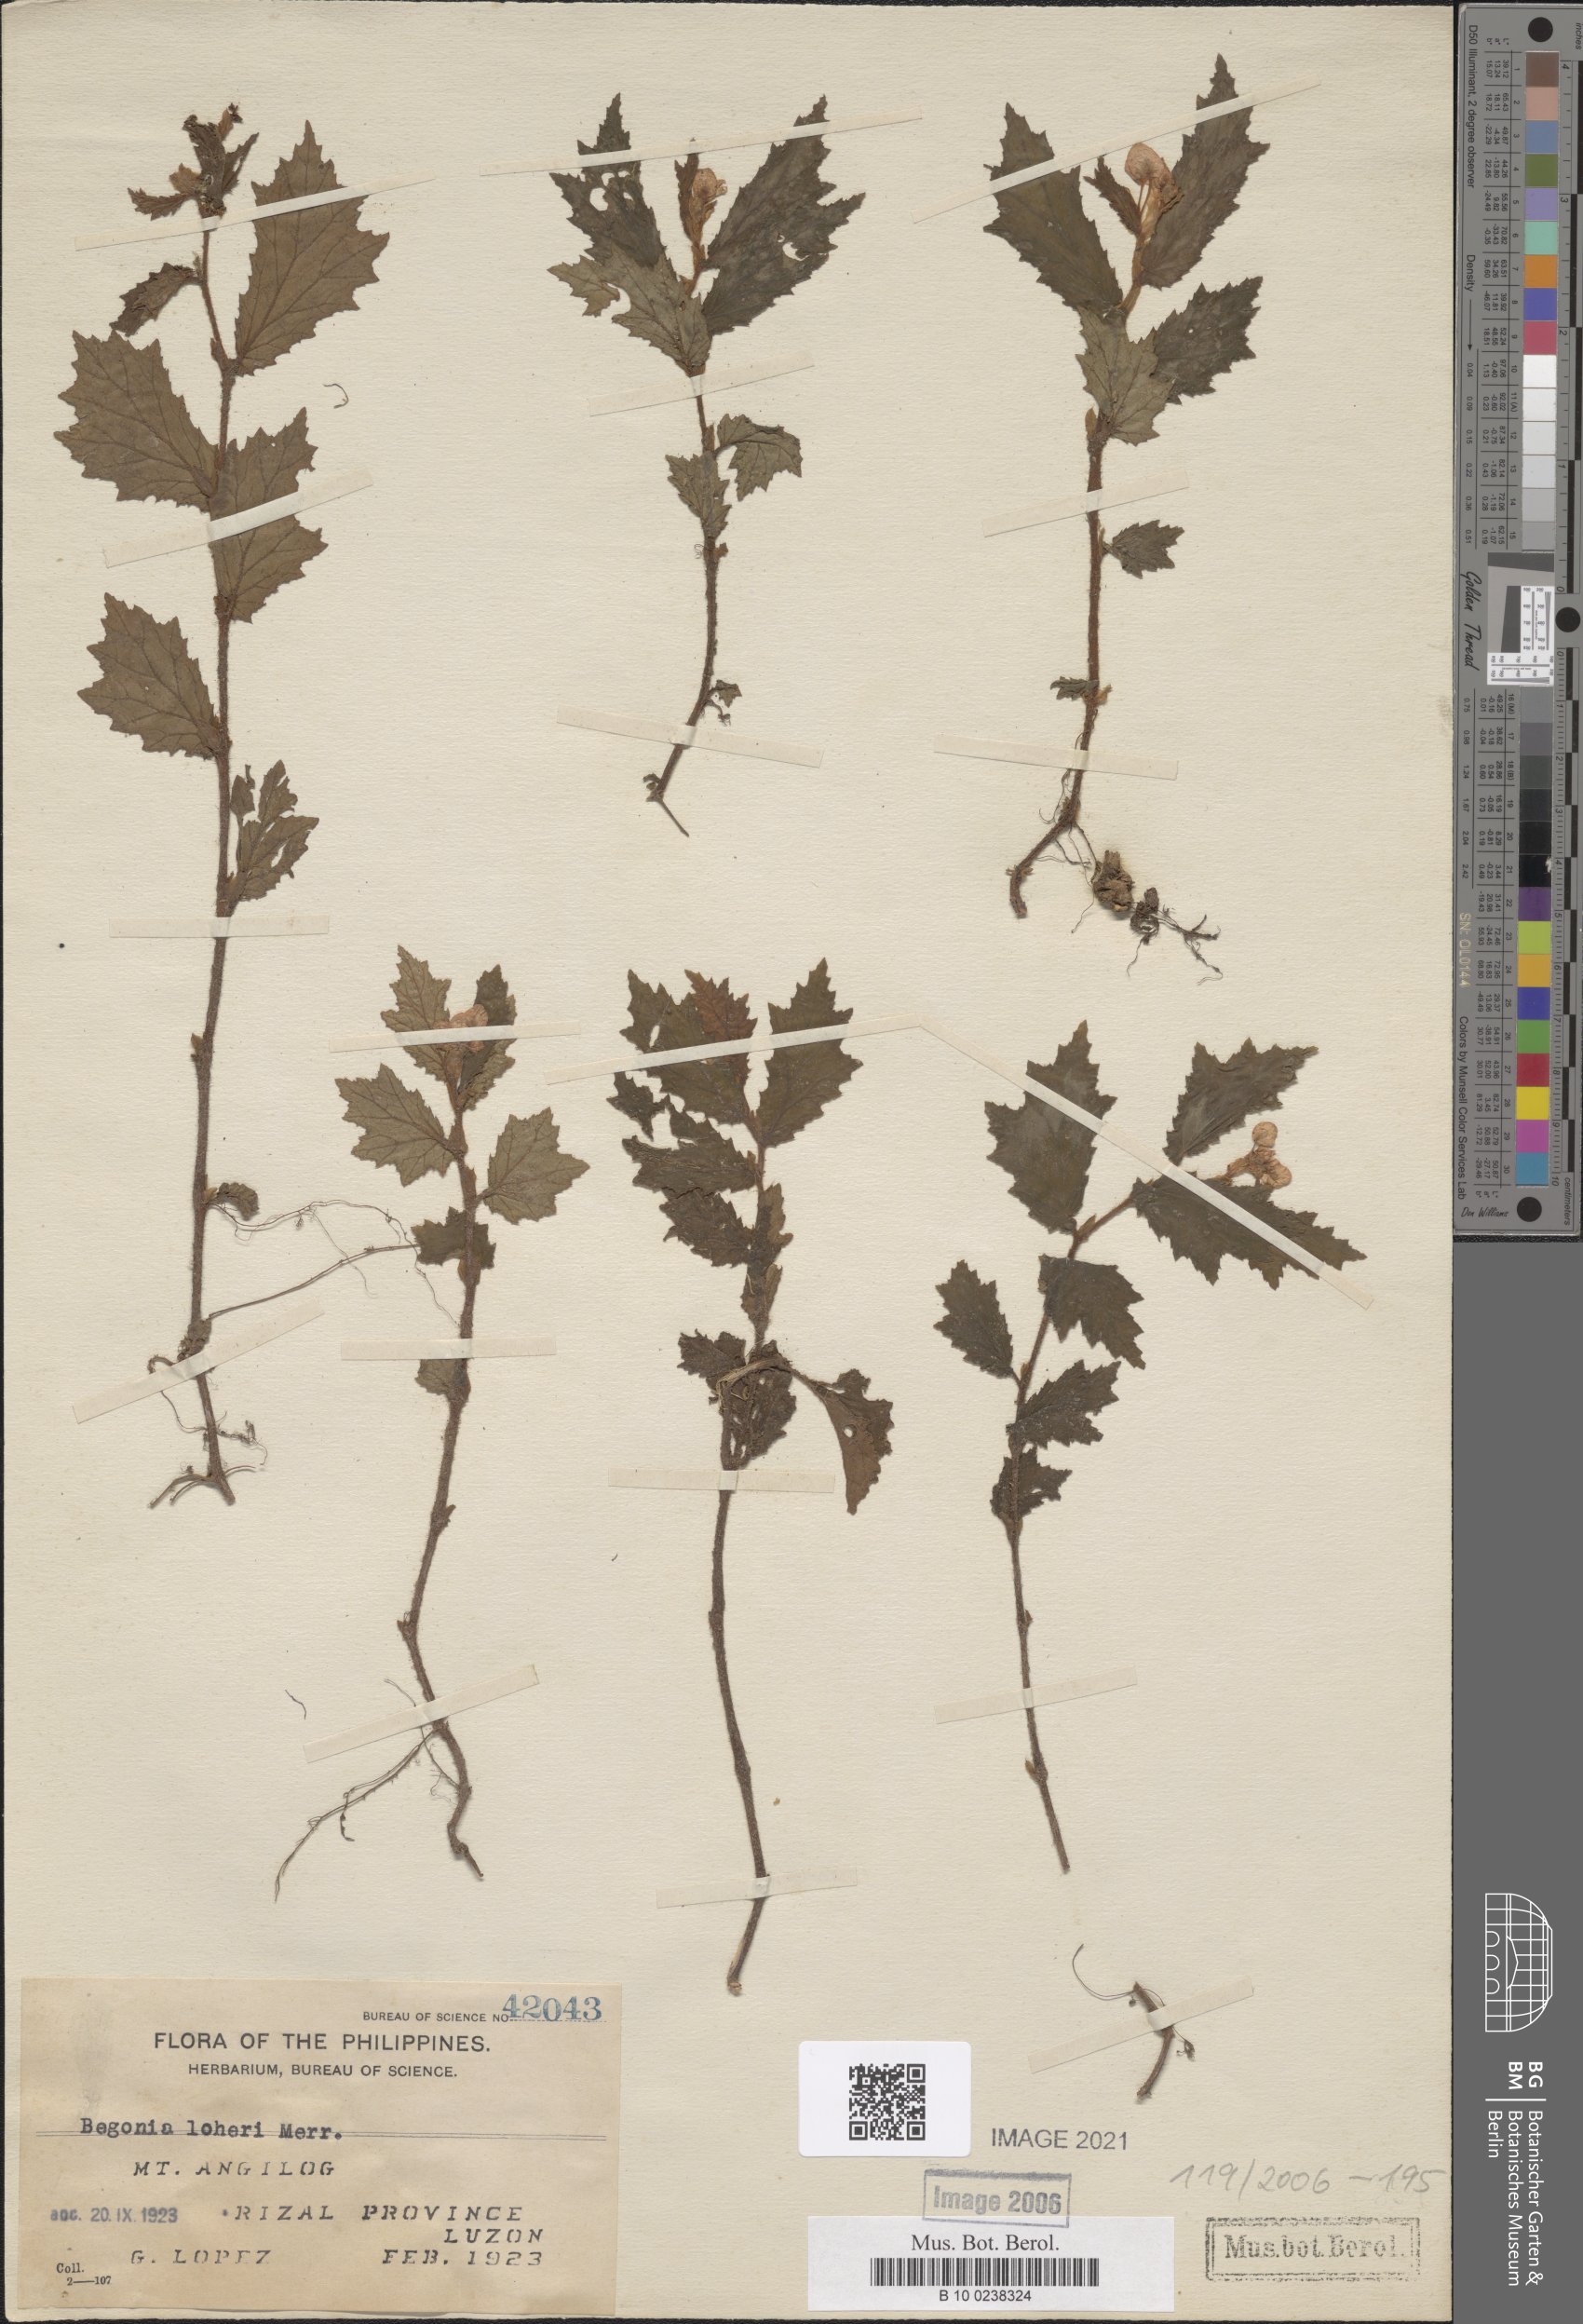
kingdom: Plantae
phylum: Tracheophyta
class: Magnoliopsida
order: Cucurbitales
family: Begoniaceae
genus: Begonia
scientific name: Begonia loheri
